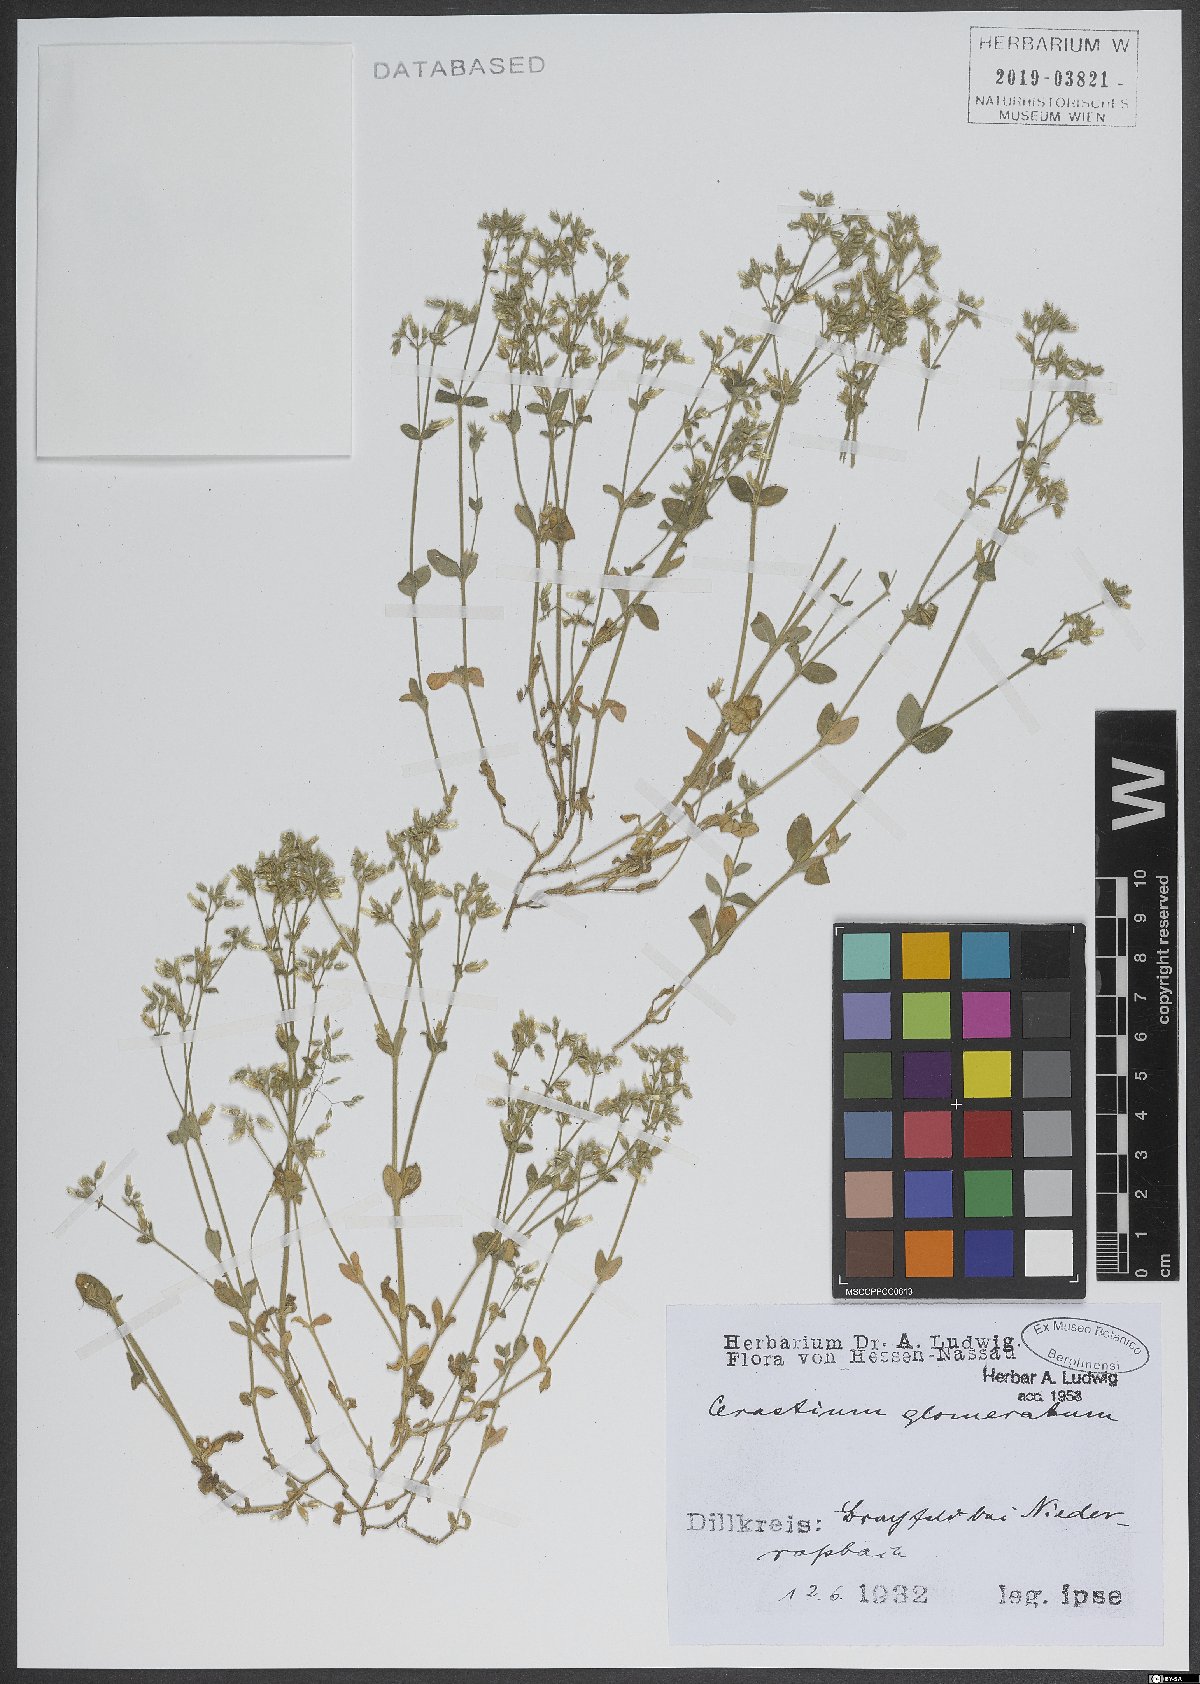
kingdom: Plantae
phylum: Tracheophyta
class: Magnoliopsida
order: Caryophyllales
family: Caryophyllaceae
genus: Cerastium
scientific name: Cerastium glomeratum
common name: Sticky chickweed
